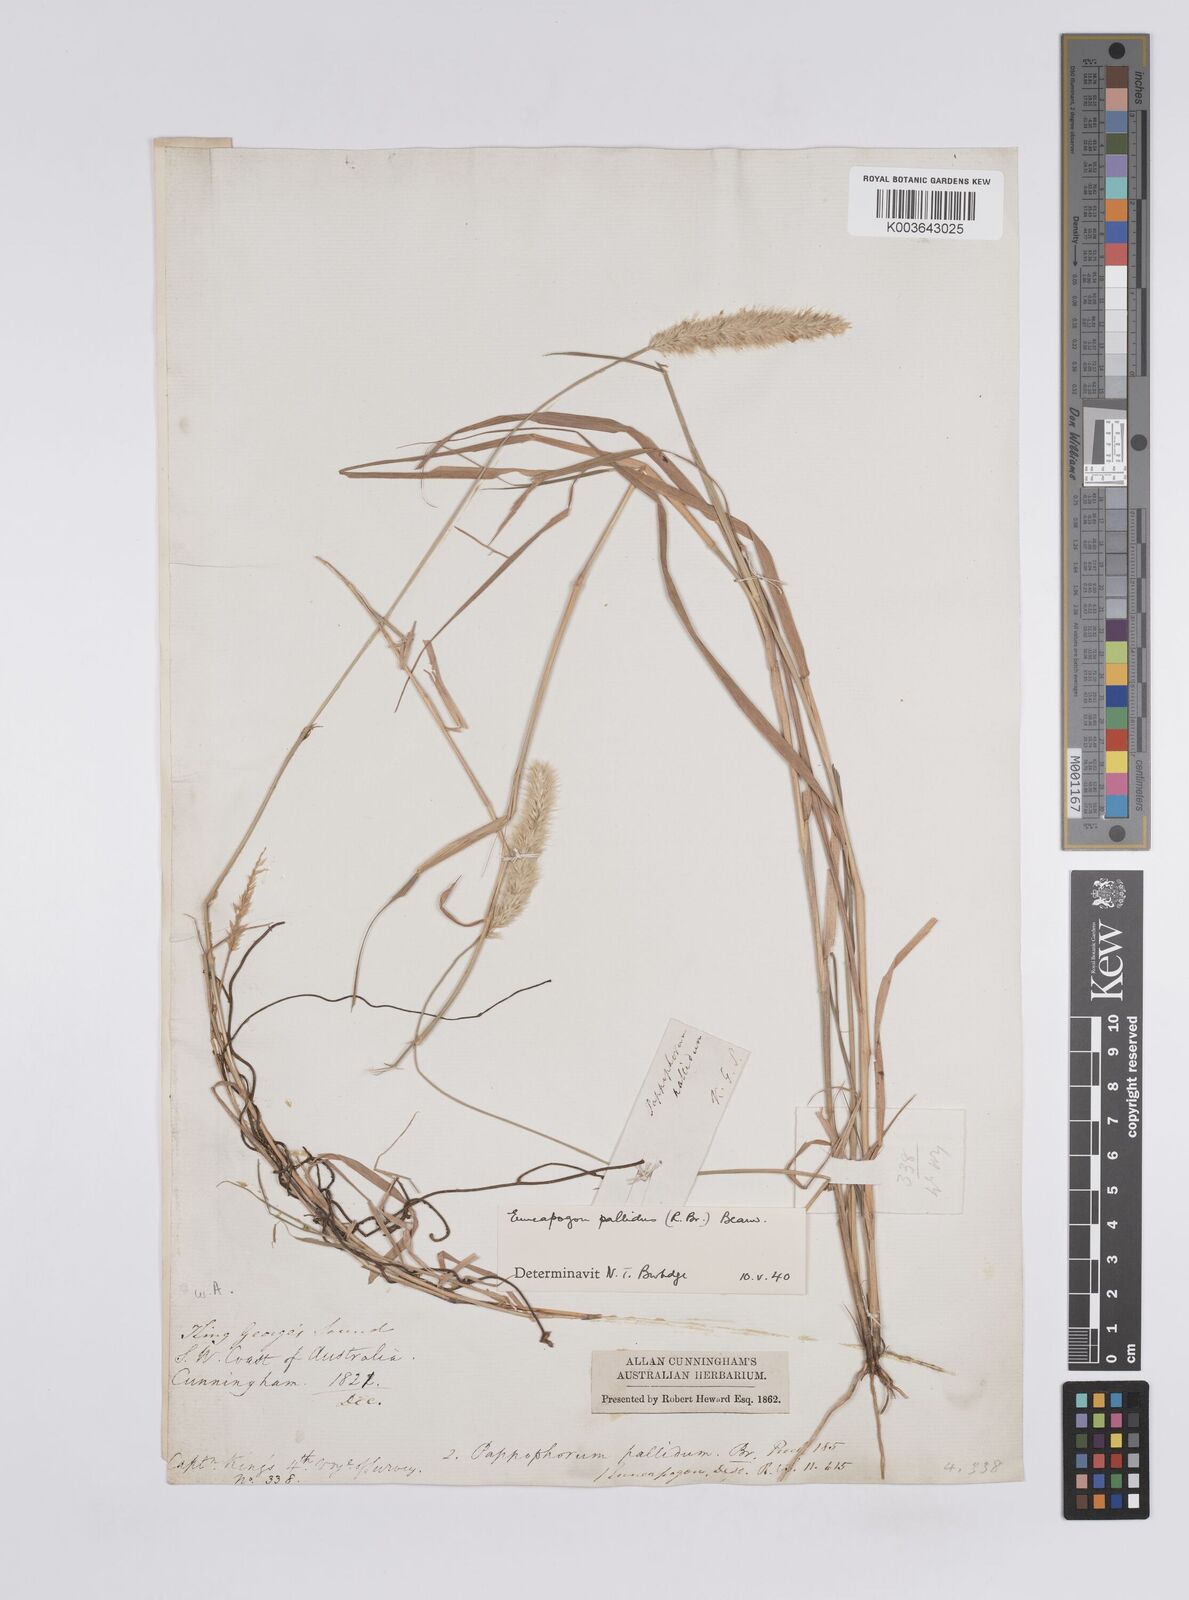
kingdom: Plantae
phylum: Tracheophyta
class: Liliopsida
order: Poales
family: Poaceae
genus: Enneapogon
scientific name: Enneapogon pallidus
